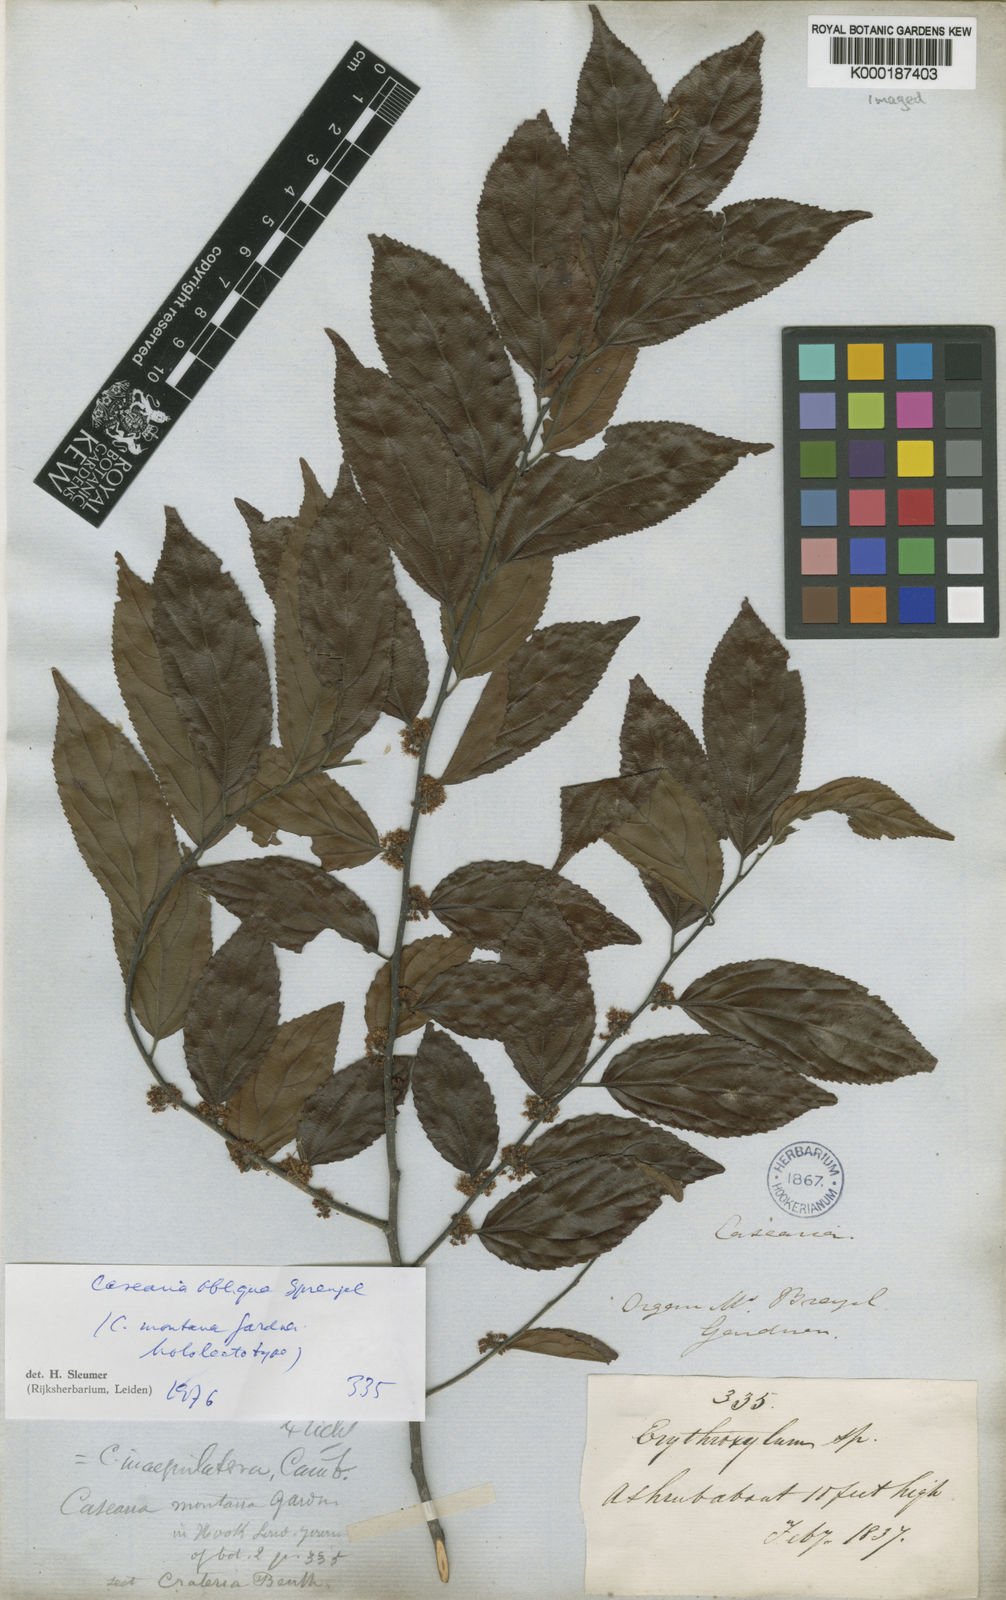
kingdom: Plantae
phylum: Tracheophyta
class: Magnoliopsida
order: Malpighiales
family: Salicaceae
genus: Casearia
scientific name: Casearia obliqua
